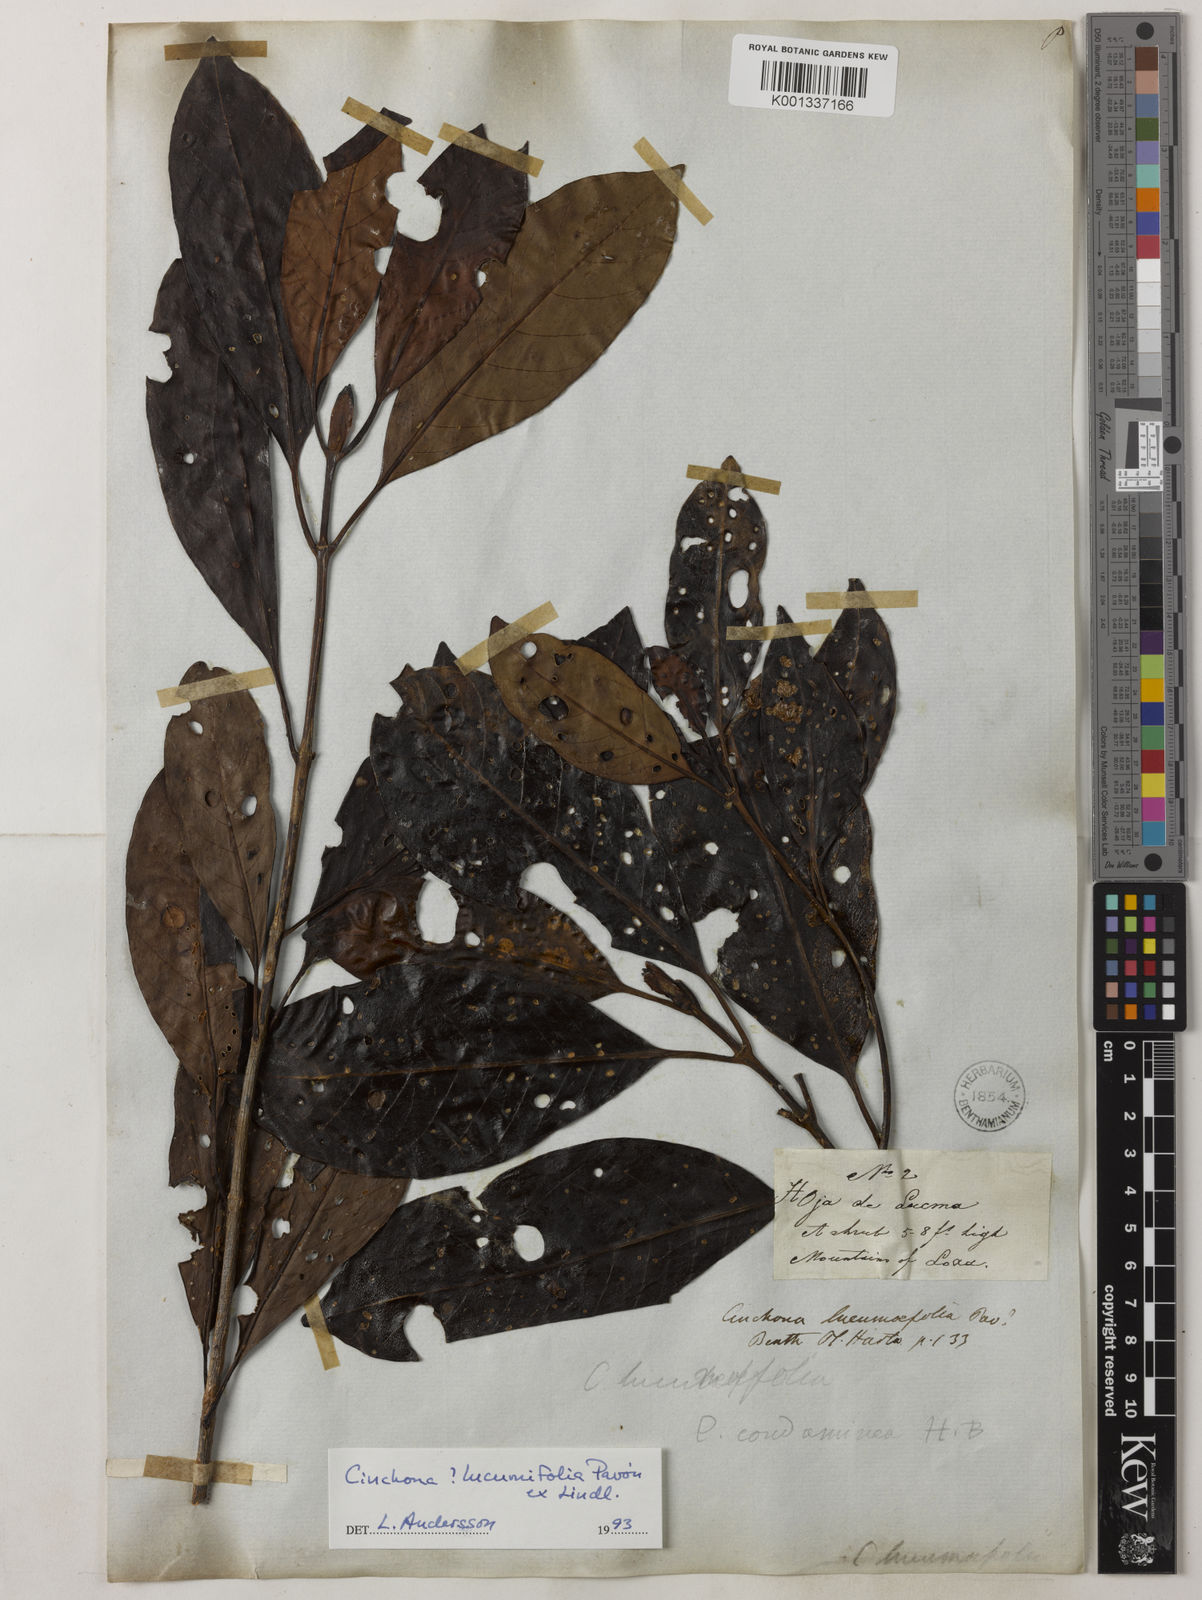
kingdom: Plantae
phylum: Tracheophyta
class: Magnoliopsida
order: Gentianales
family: Rubiaceae
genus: Cinchona
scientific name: Cinchona lucumifolia
